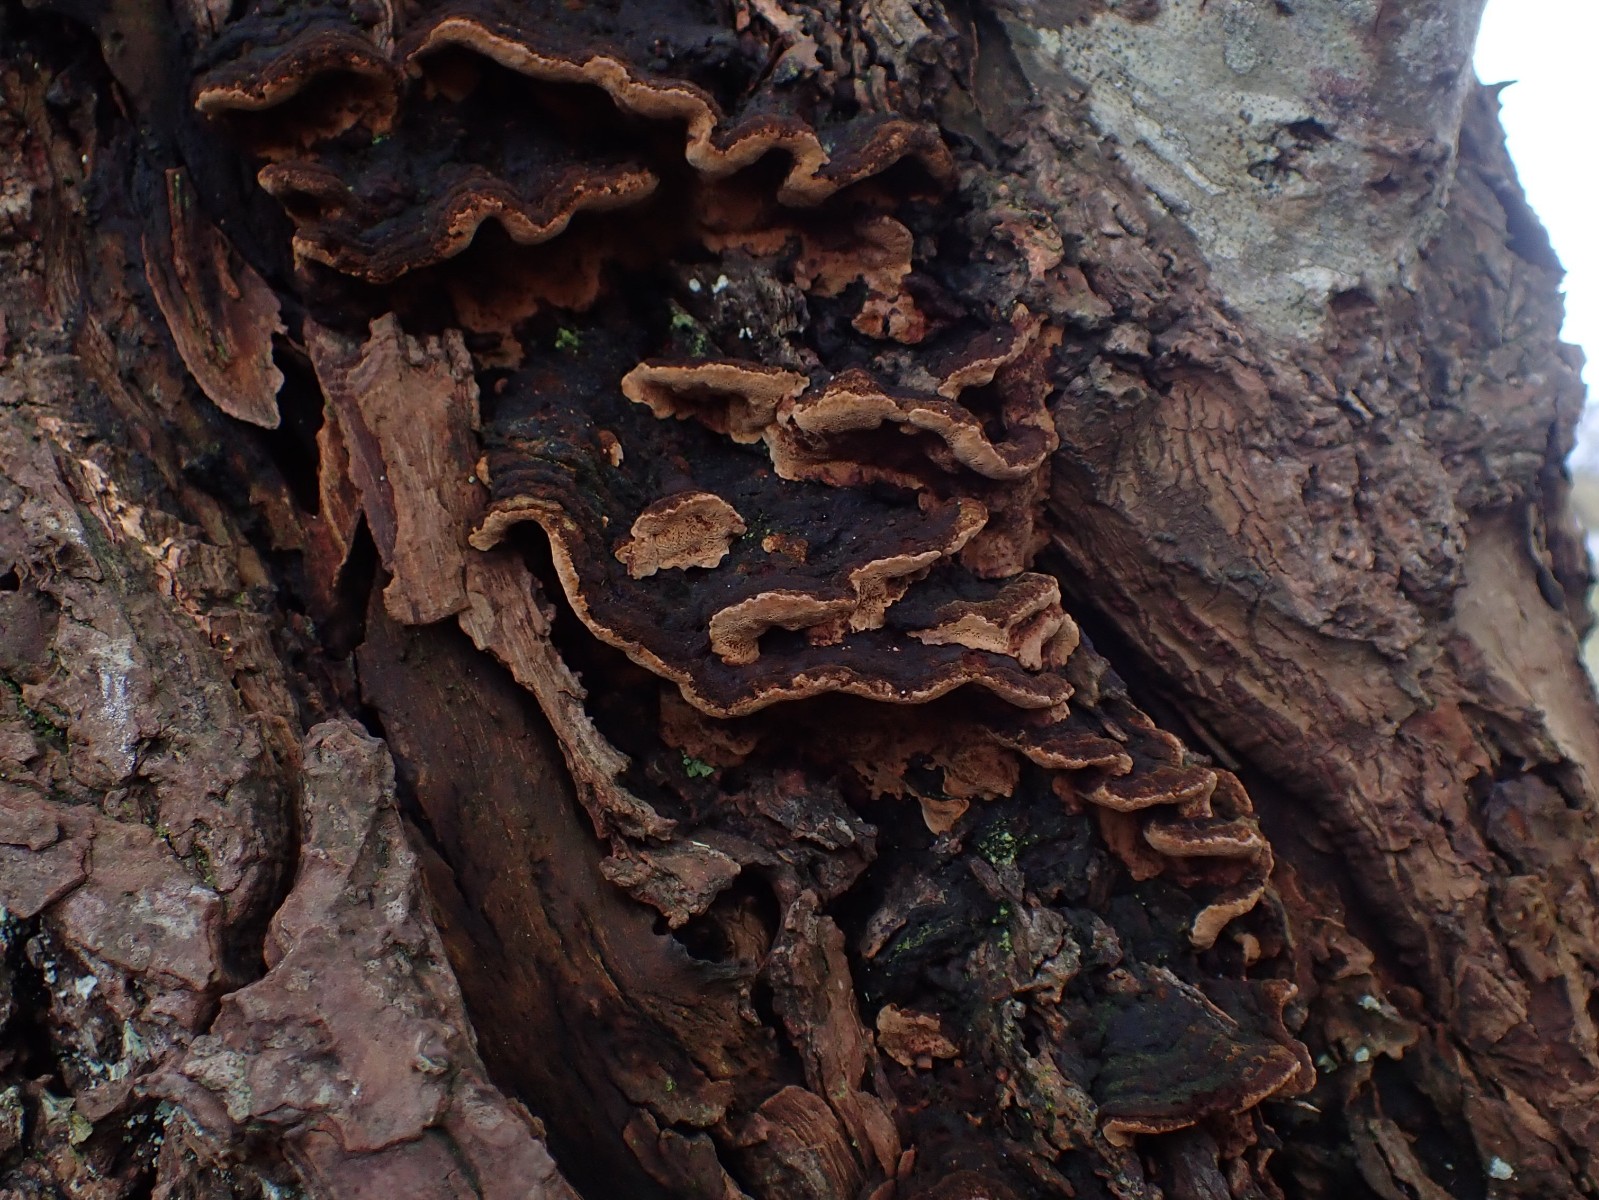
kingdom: Fungi
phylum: Basidiomycota
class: Agaricomycetes
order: Hymenochaetales
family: Hymenochaetaceae
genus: Phellinopsis
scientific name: Phellinopsis conchata
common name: pile-ildporesvamp
